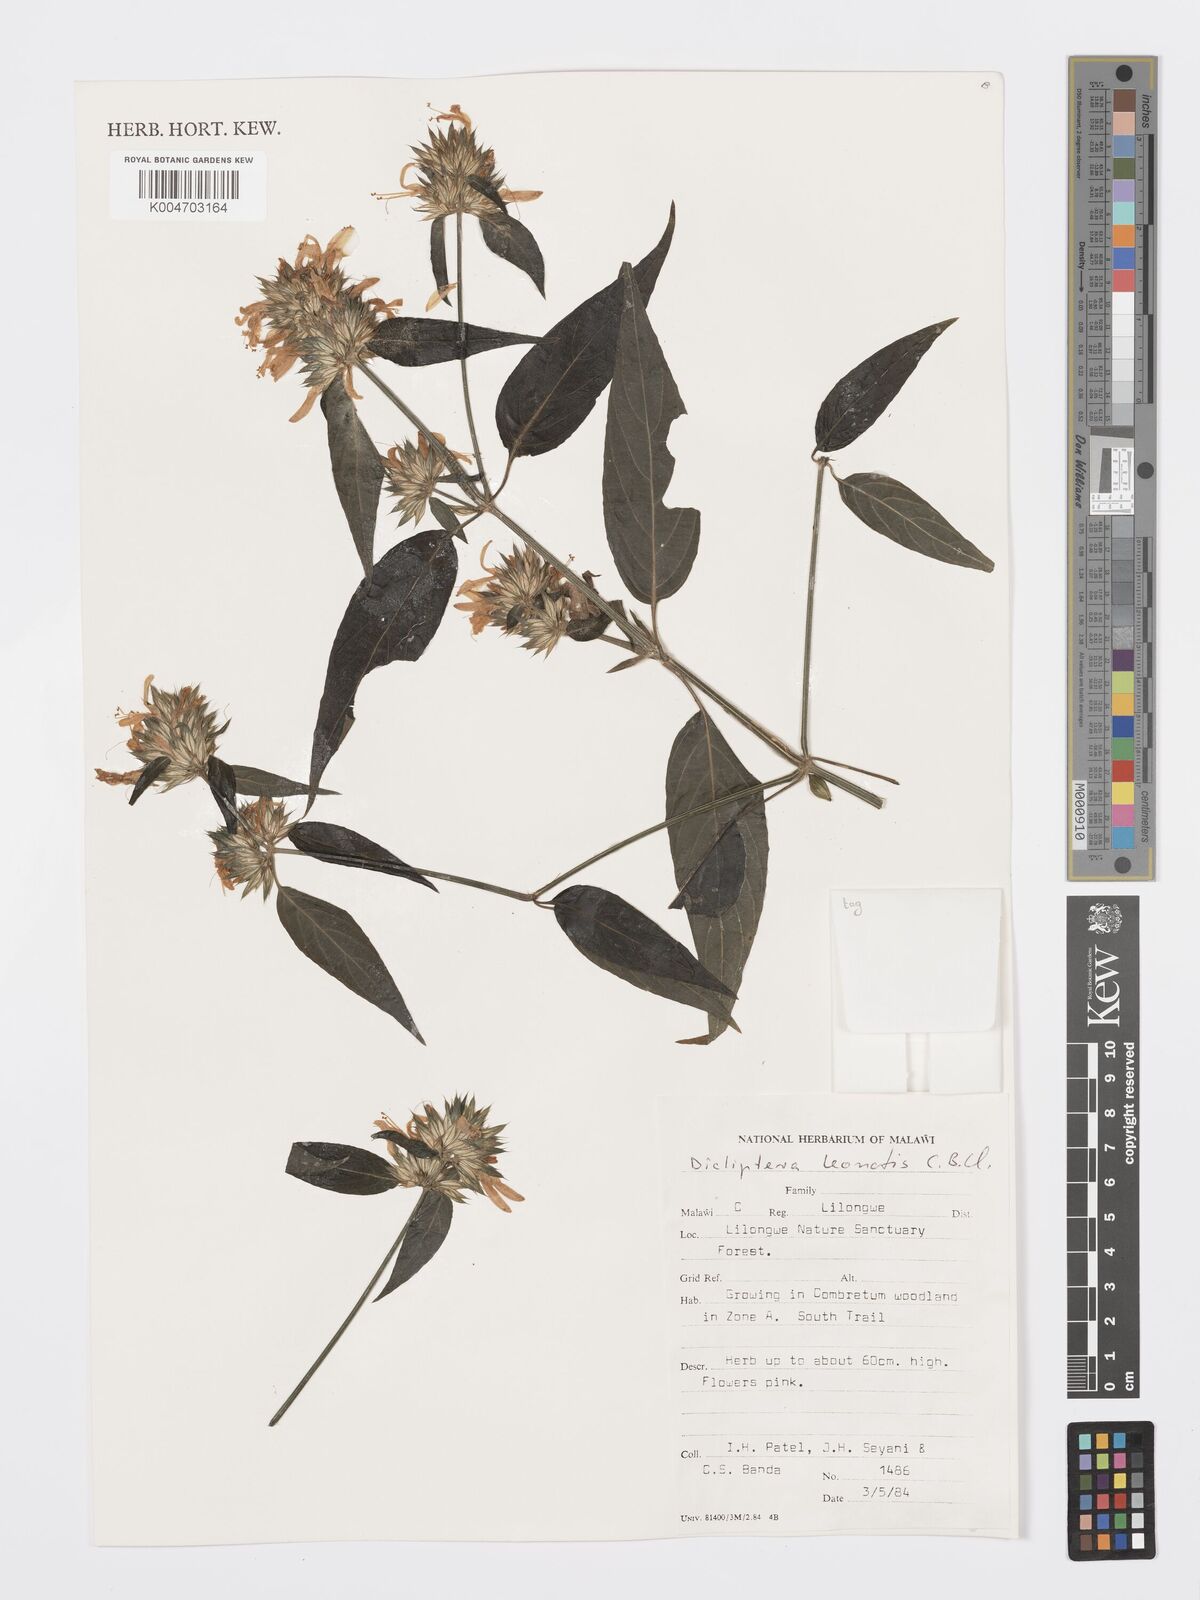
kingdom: Plantae
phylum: Tracheophyta
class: Magnoliopsida
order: Lamiales
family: Acanthaceae
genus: Dicliptera
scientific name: Dicliptera clinopodia
